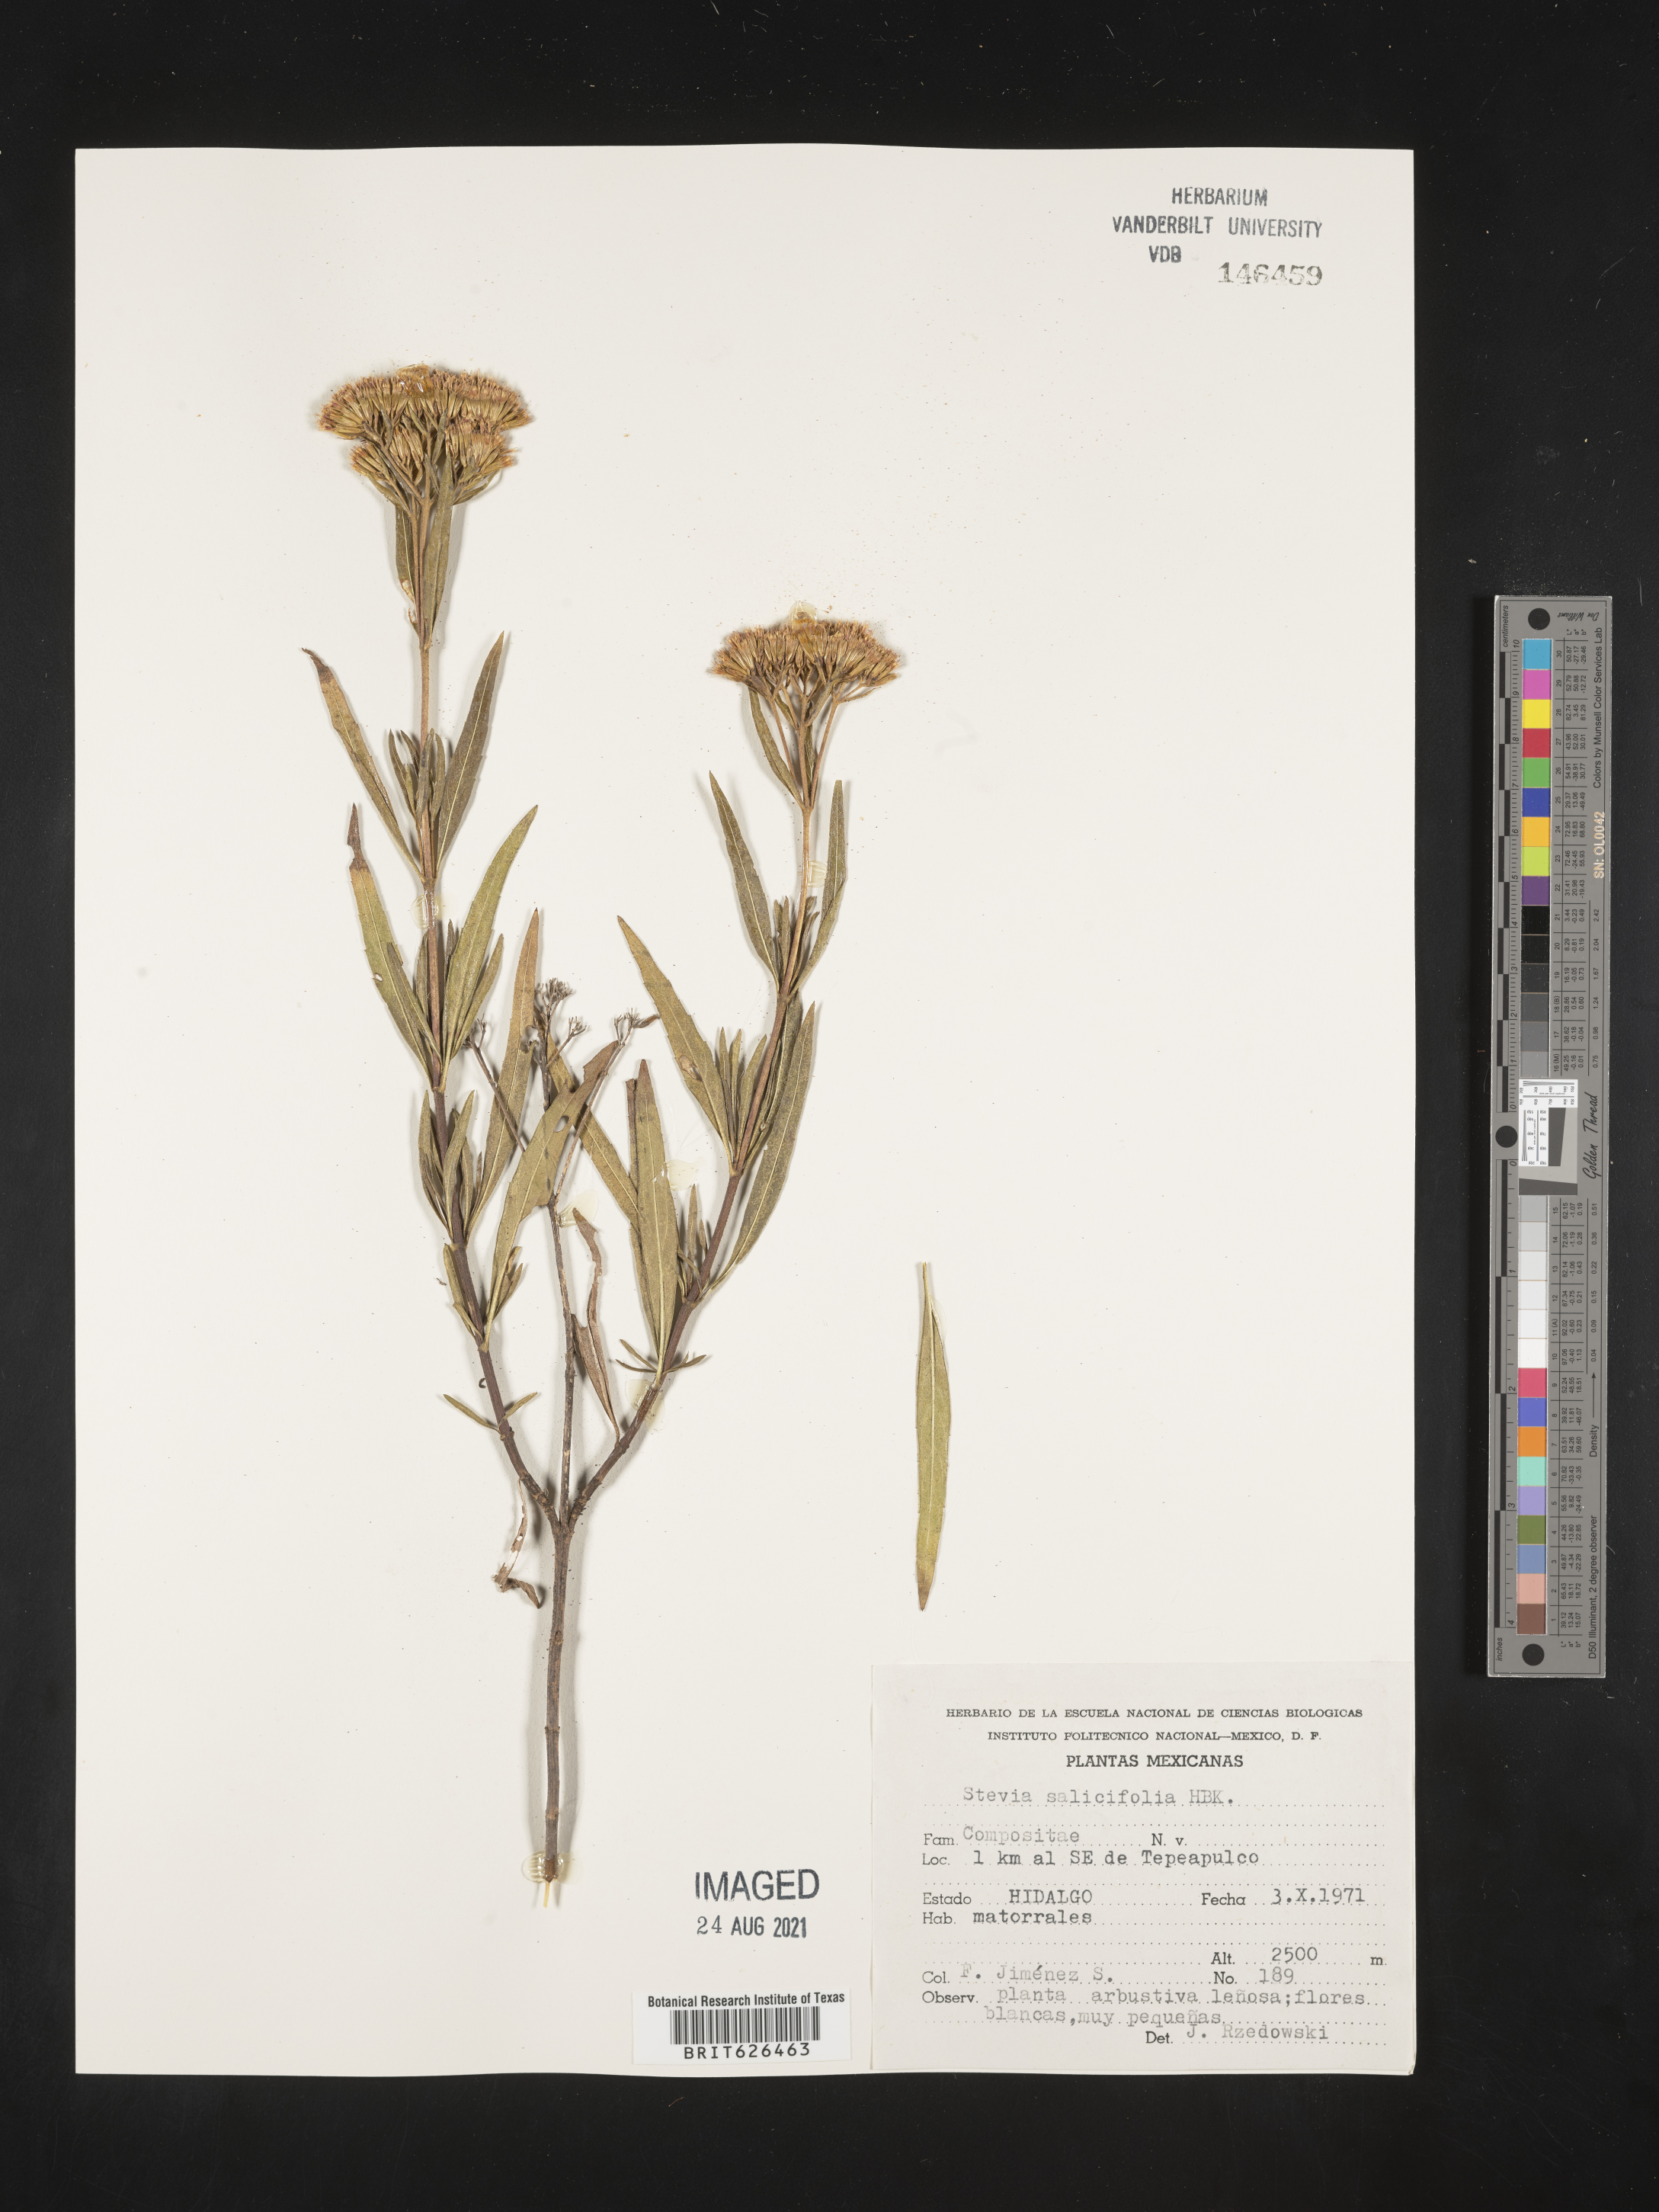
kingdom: Plantae
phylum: Tracheophyta
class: Magnoliopsida
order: Asterales
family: Asteraceae
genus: Stevia
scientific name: Stevia
